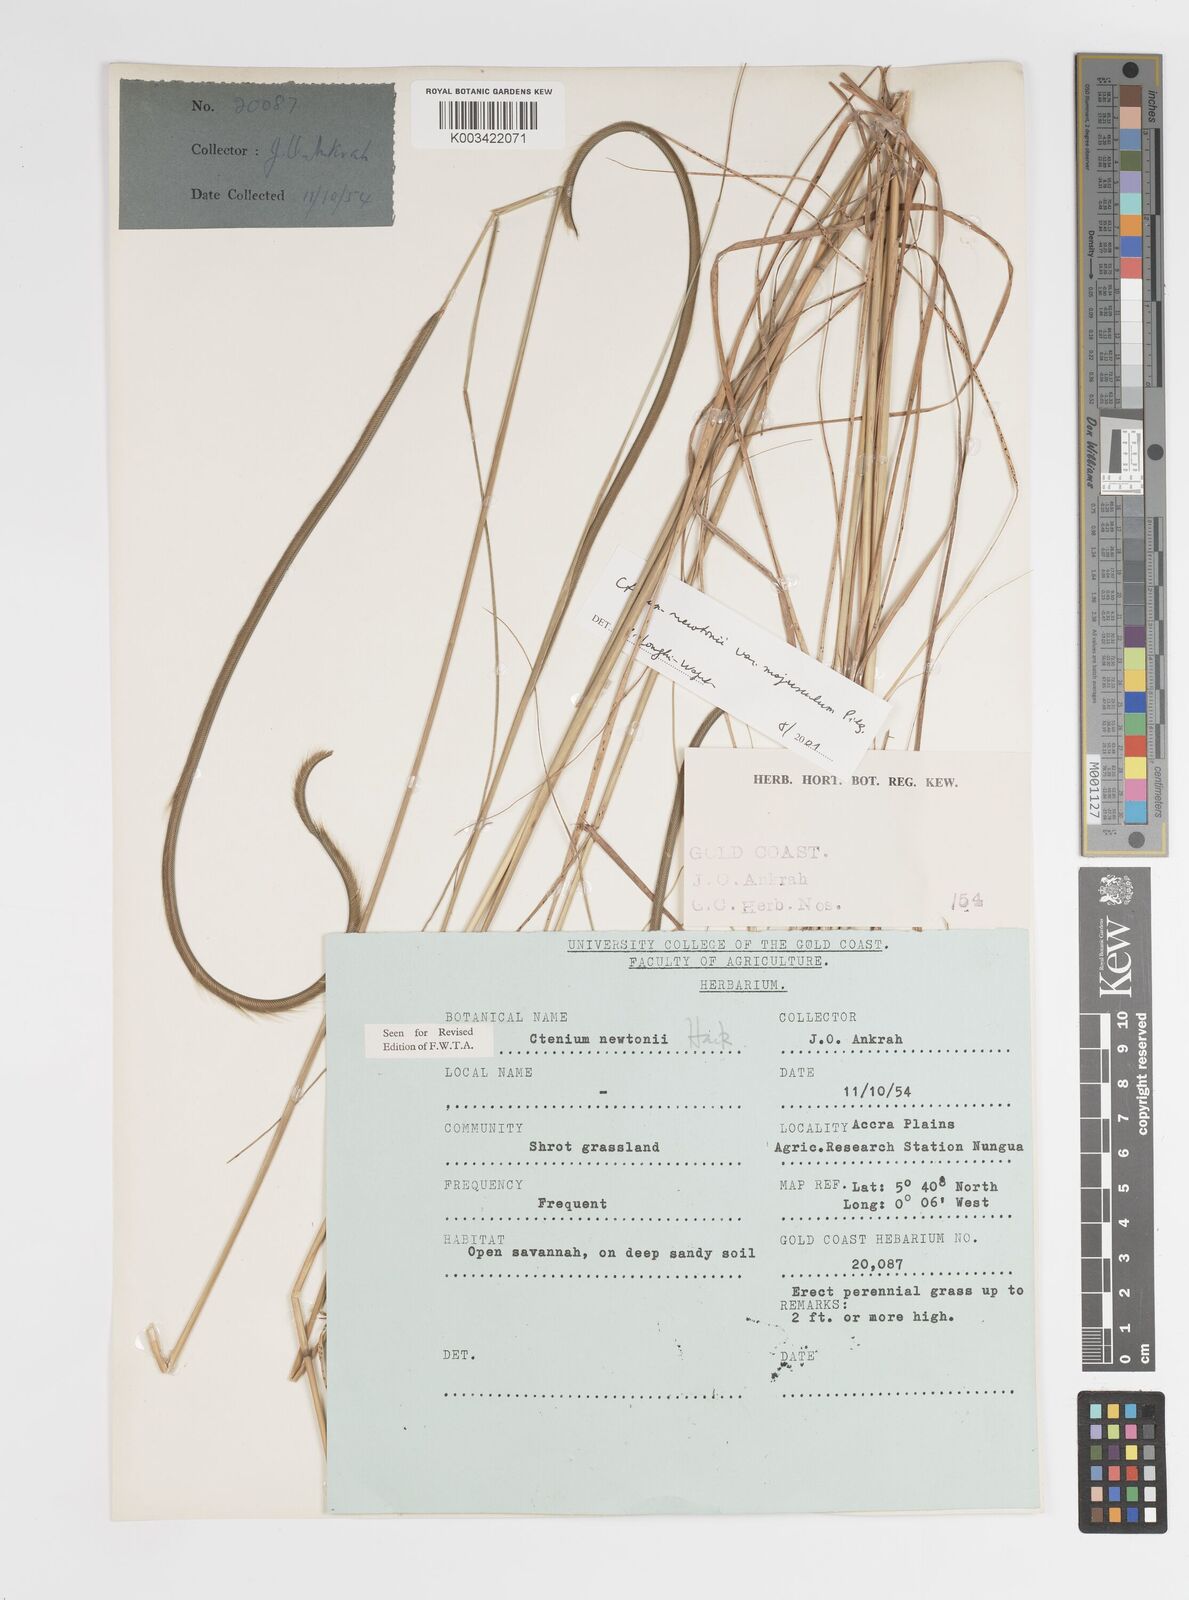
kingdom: Plantae
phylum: Tracheophyta
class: Liliopsida
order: Poales
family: Poaceae
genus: Ctenium
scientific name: Ctenium newtonii
